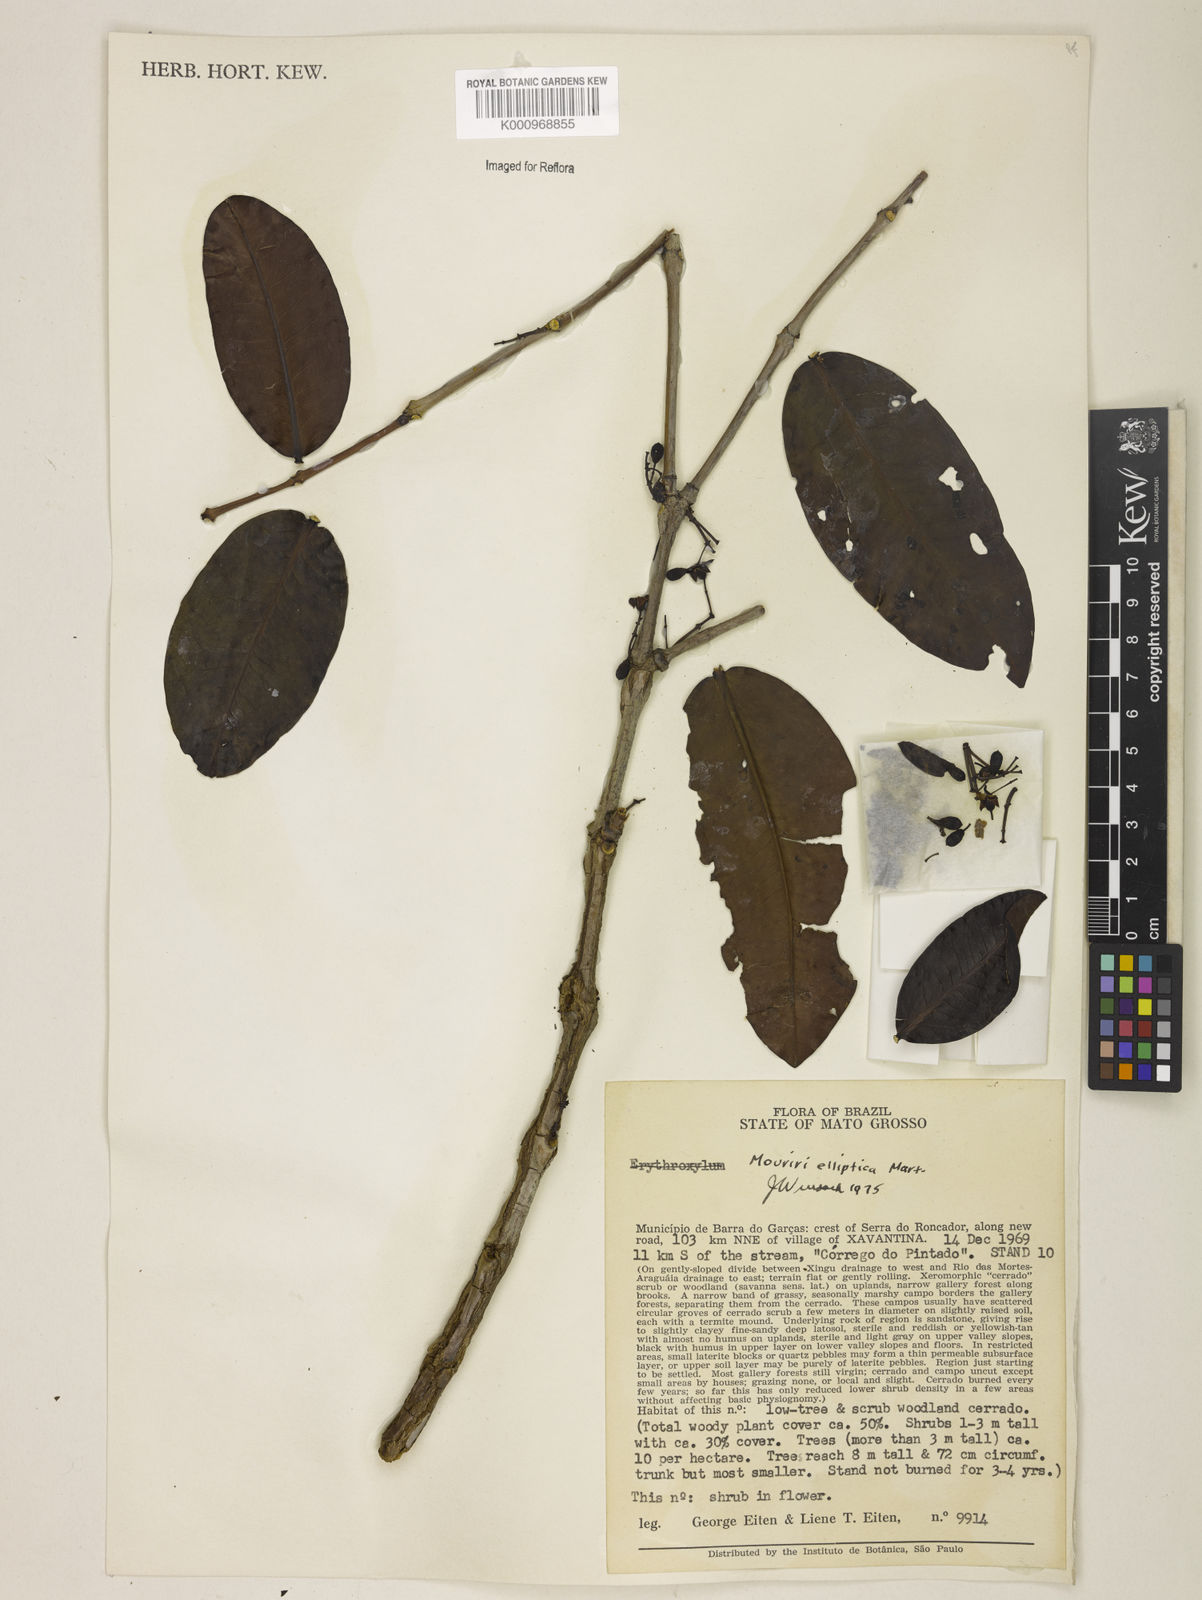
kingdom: Plantae
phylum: Tracheophyta
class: Magnoliopsida
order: Myrtales
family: Melastomataceae
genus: Mouriri
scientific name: Mouriri elliptica
